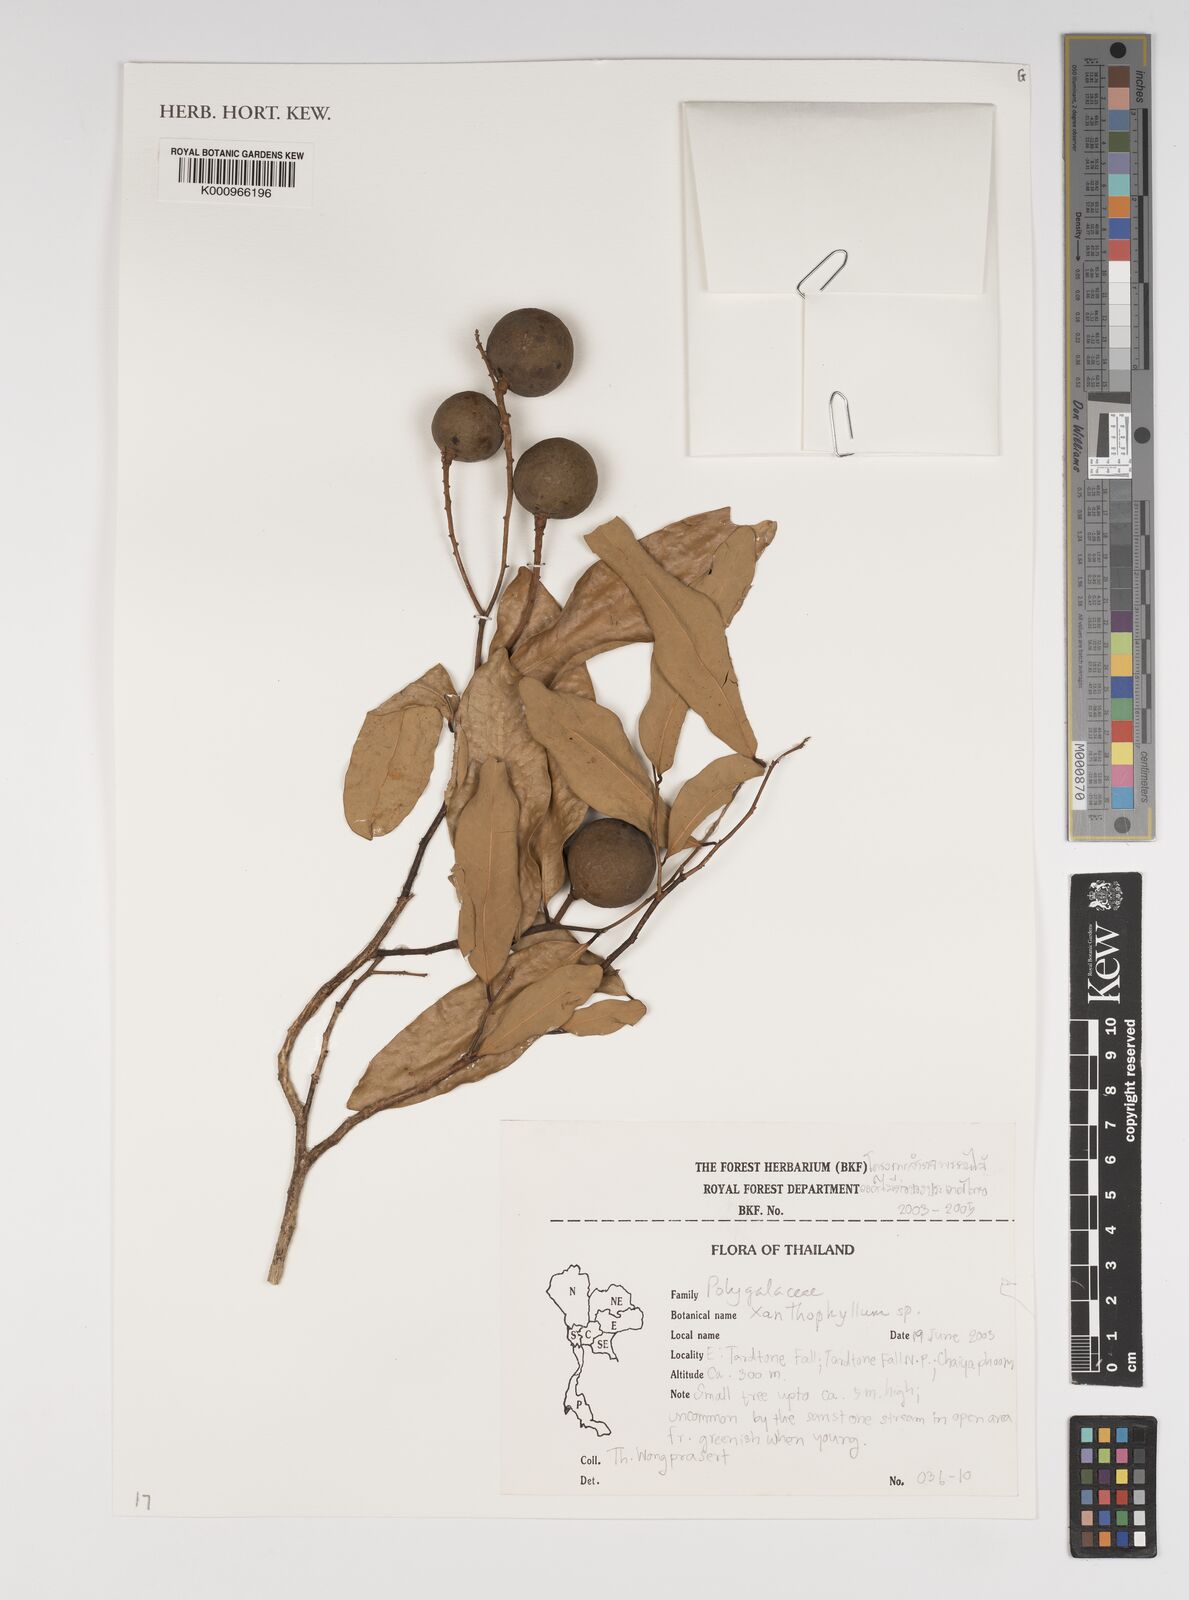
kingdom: Plantae
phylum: Tracheophyta
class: Magnoliopsida
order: Fabales
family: Polygalaceae
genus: Xanthophyllum
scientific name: Xanthophyllum
